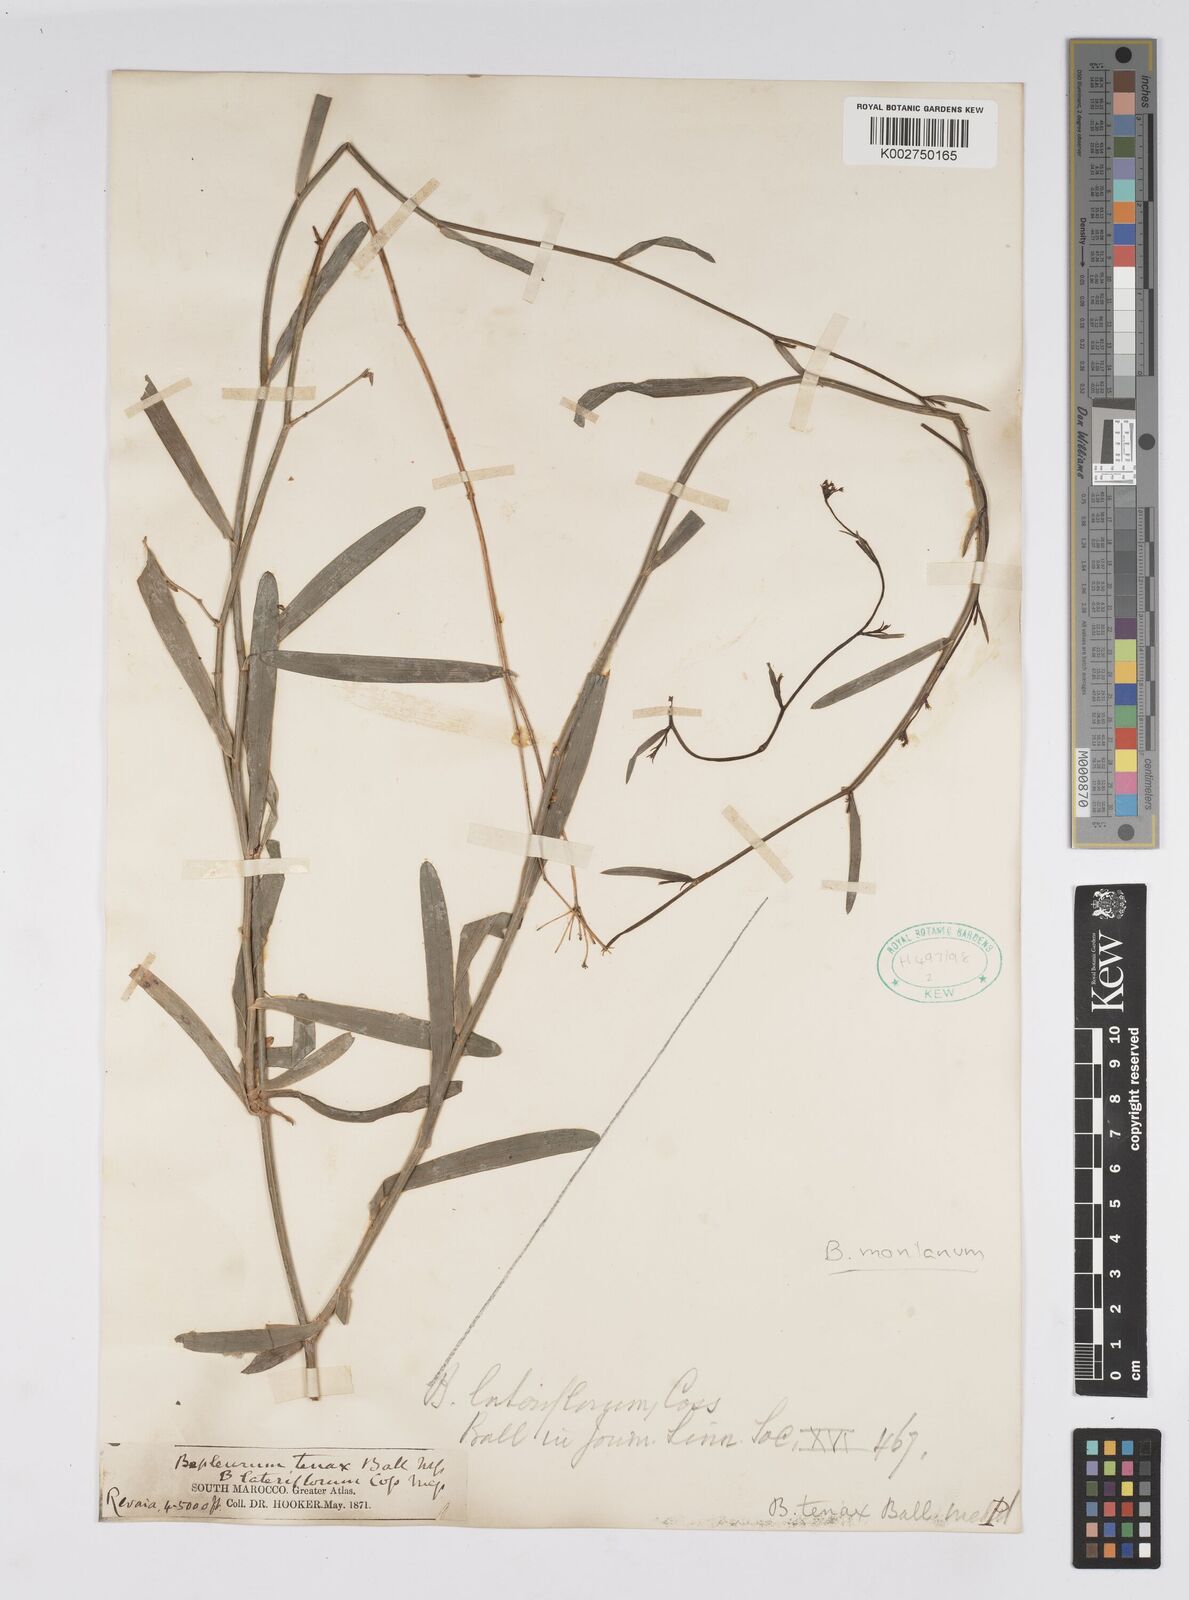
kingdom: Plantae
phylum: Tracheophyta
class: Magnoliopsida
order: Apiales
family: Apiaceae
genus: Bupleurum
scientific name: Bupleurum montanum
